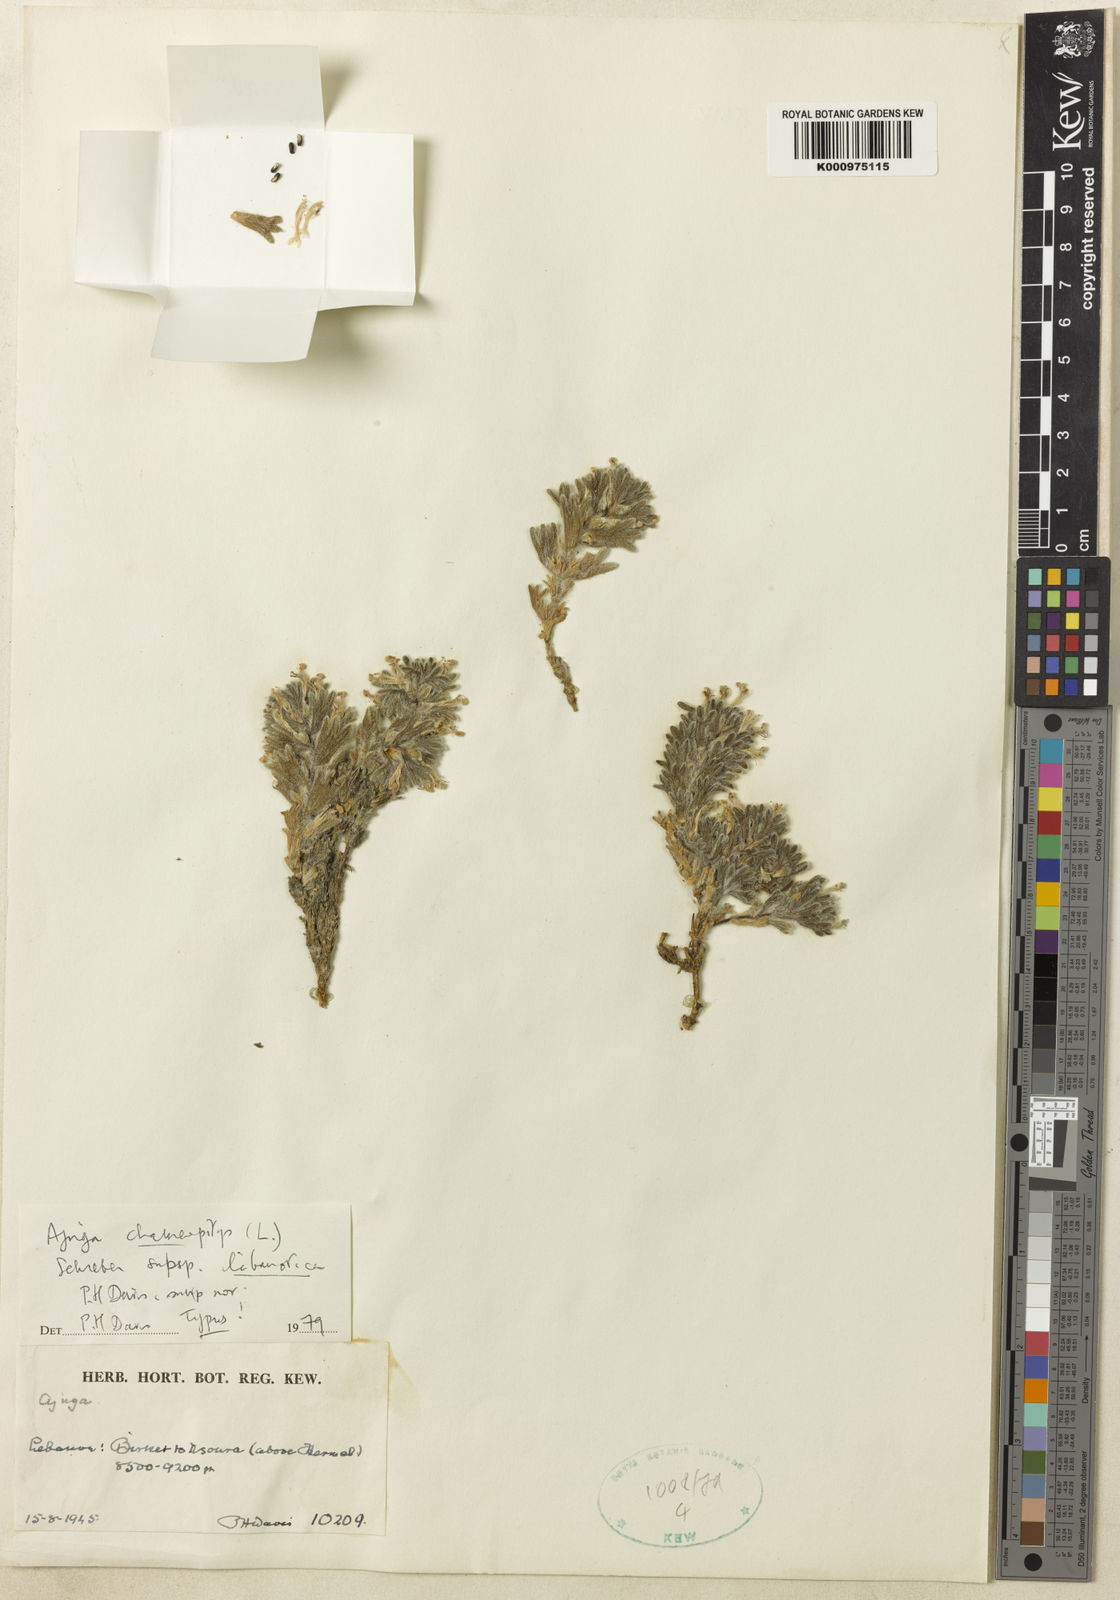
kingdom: Plantae
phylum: Tracheophyta
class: Magnoliopsida
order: Lamiales
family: Lamiaceae
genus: Ajuga
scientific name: Ajuga chamaepitys
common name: Ground-pine
